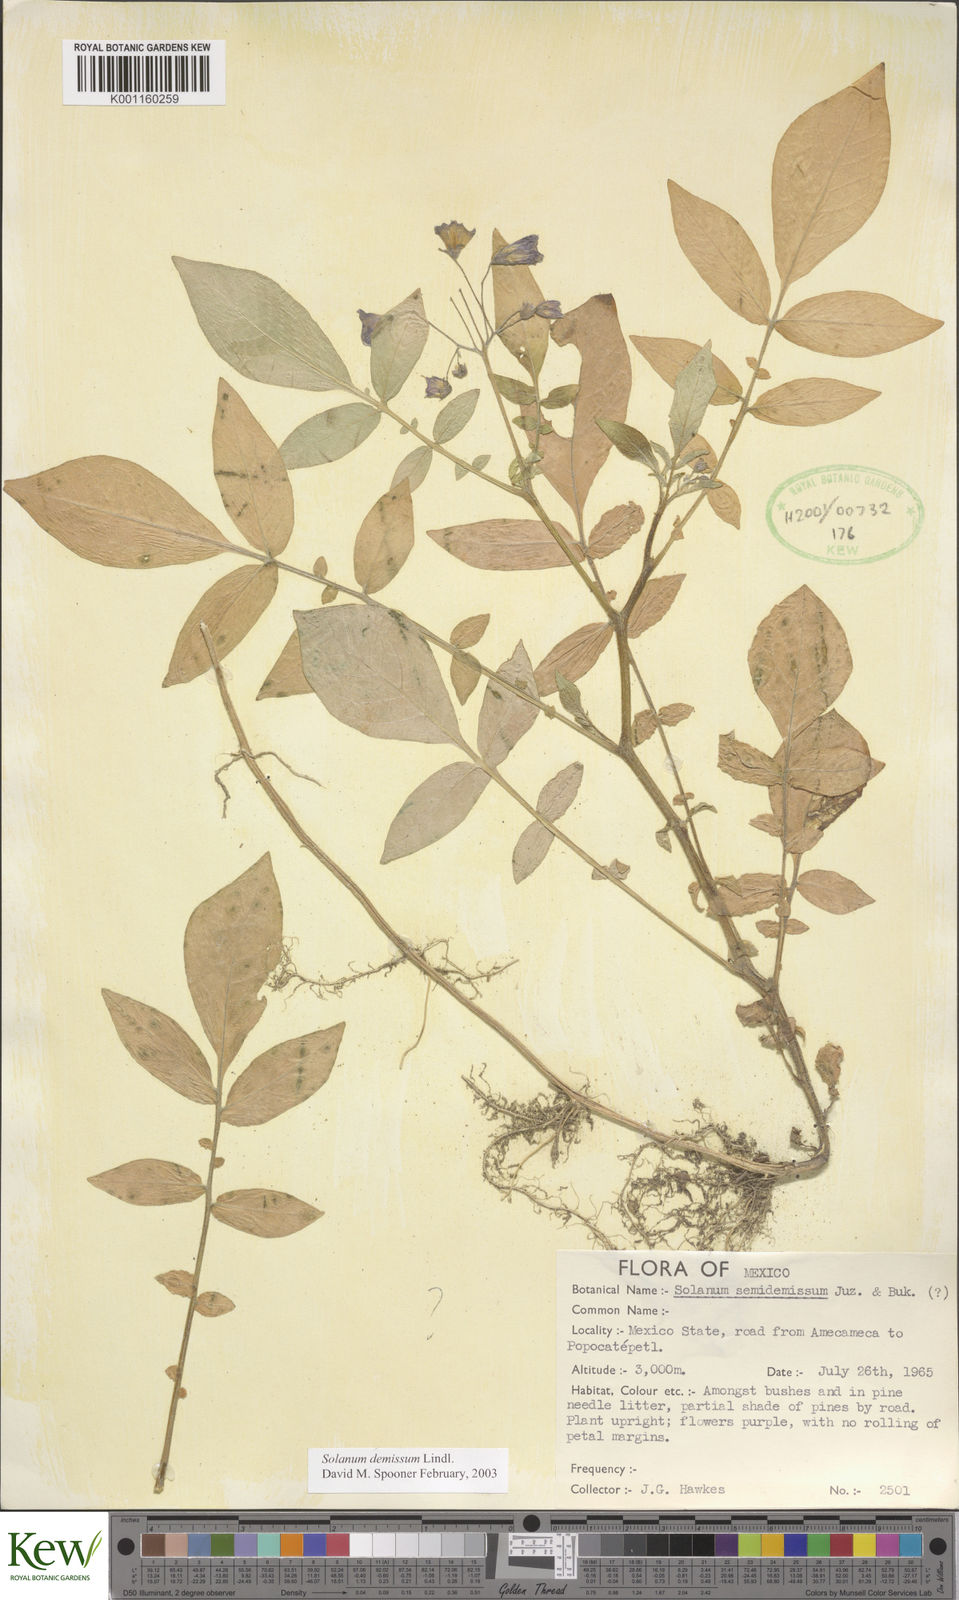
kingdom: Plantae
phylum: Tracheophyta
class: Magnoliopsida
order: Solanales
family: Solanaceae
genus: Solanum
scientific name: Solanum demissum
